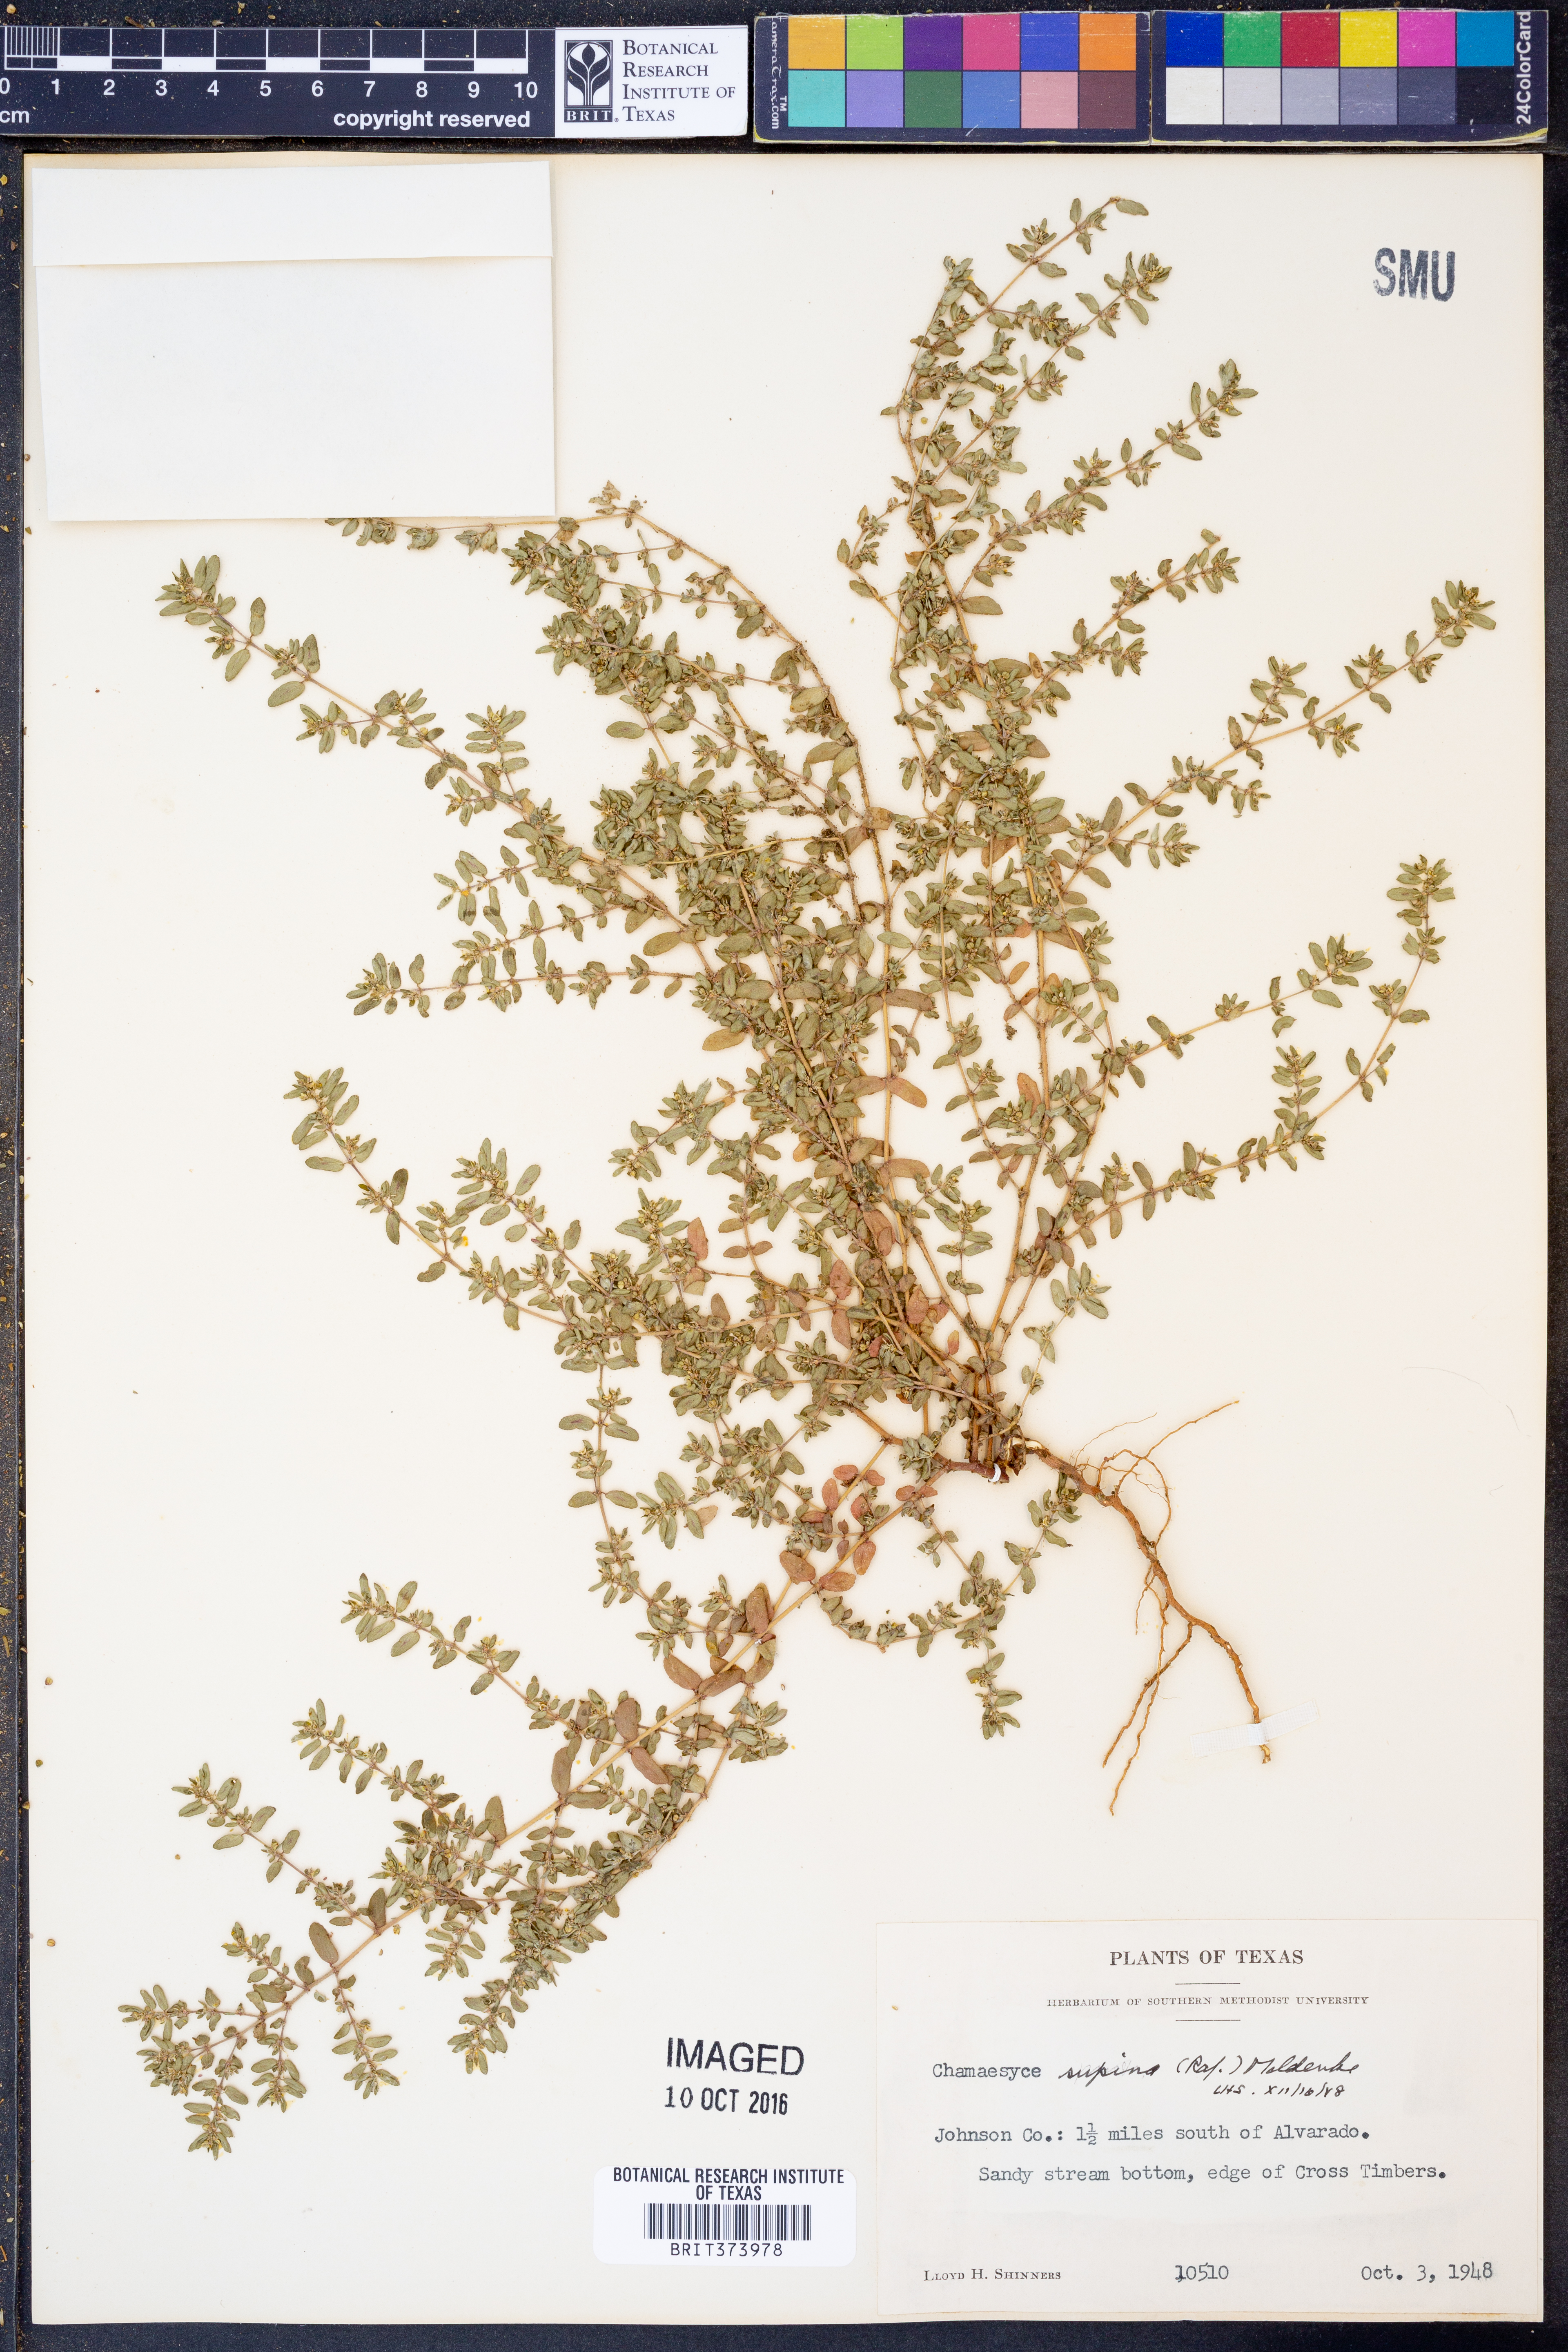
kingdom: Plantae
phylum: Tracheophyta
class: Magnoliopsida
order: Malpighiales
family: Euphorbiaceae
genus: Euphorbia
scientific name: Euphorbia maculata
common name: Spotted spurge
